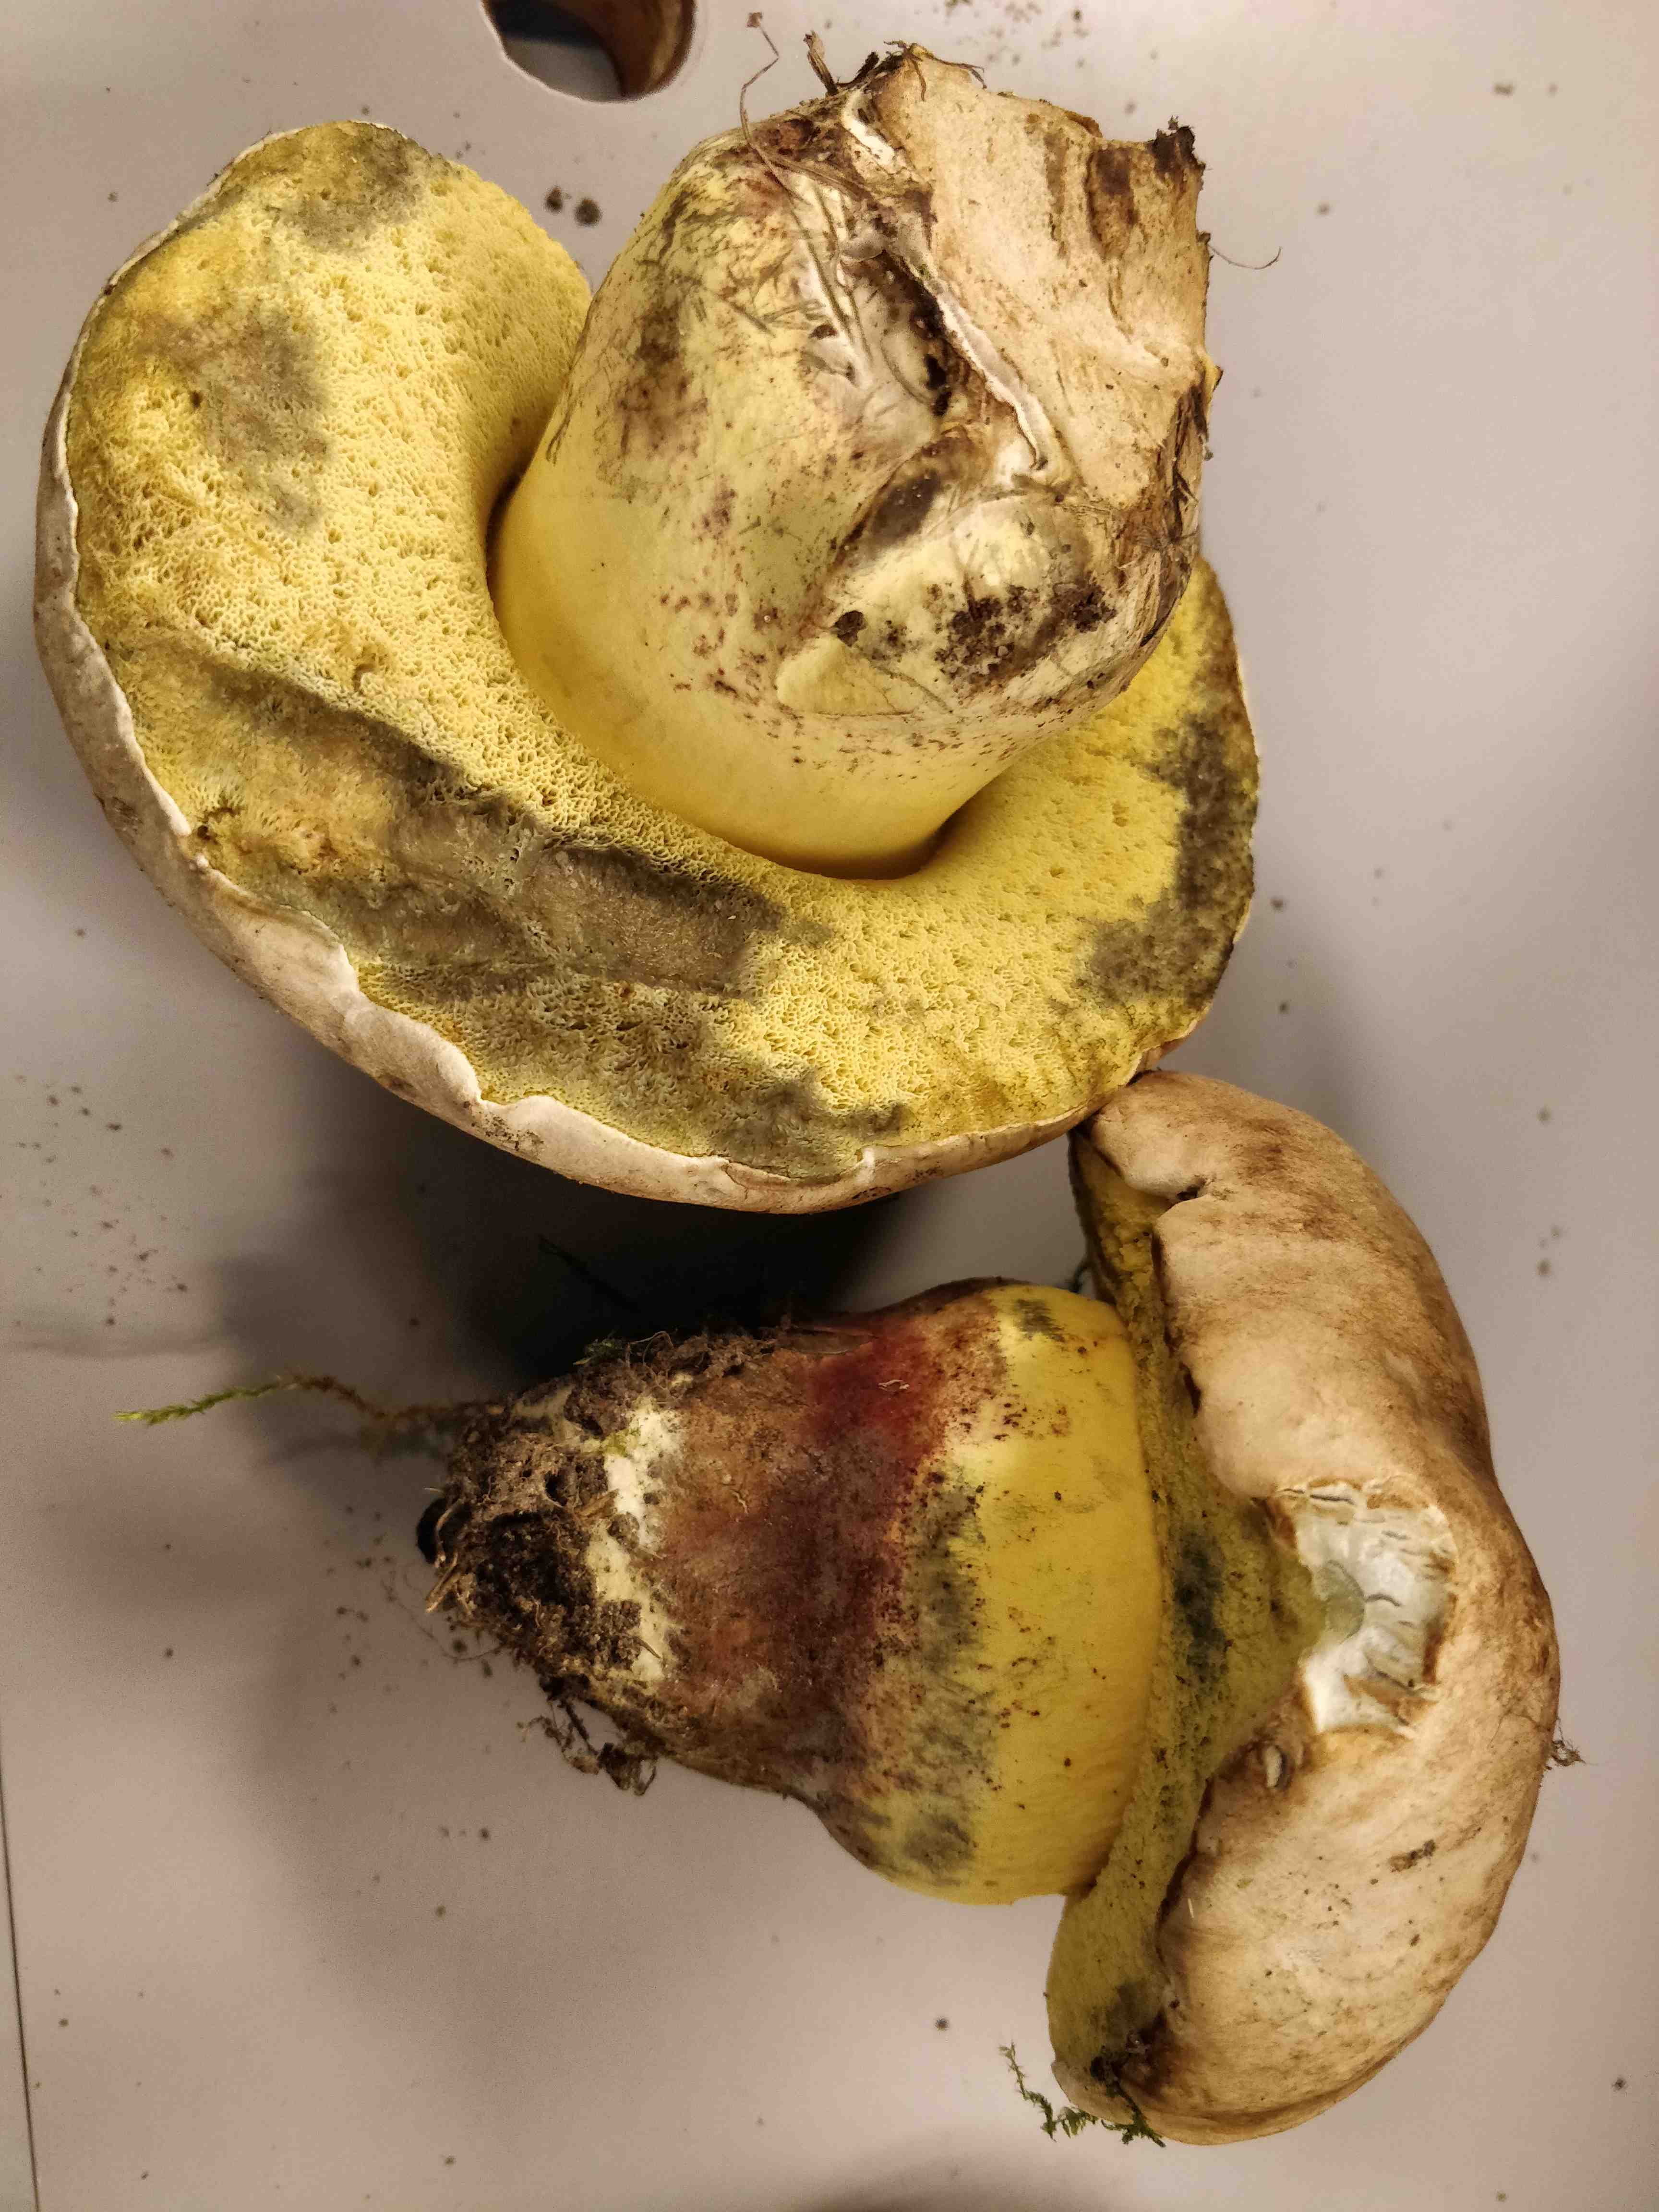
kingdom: Fungi
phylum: Basidiomycota
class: Agaricomycetes
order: Boletales
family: Boletaceae
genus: Caloboletus
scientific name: Caloboletus radicans
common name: rod-rørhat
